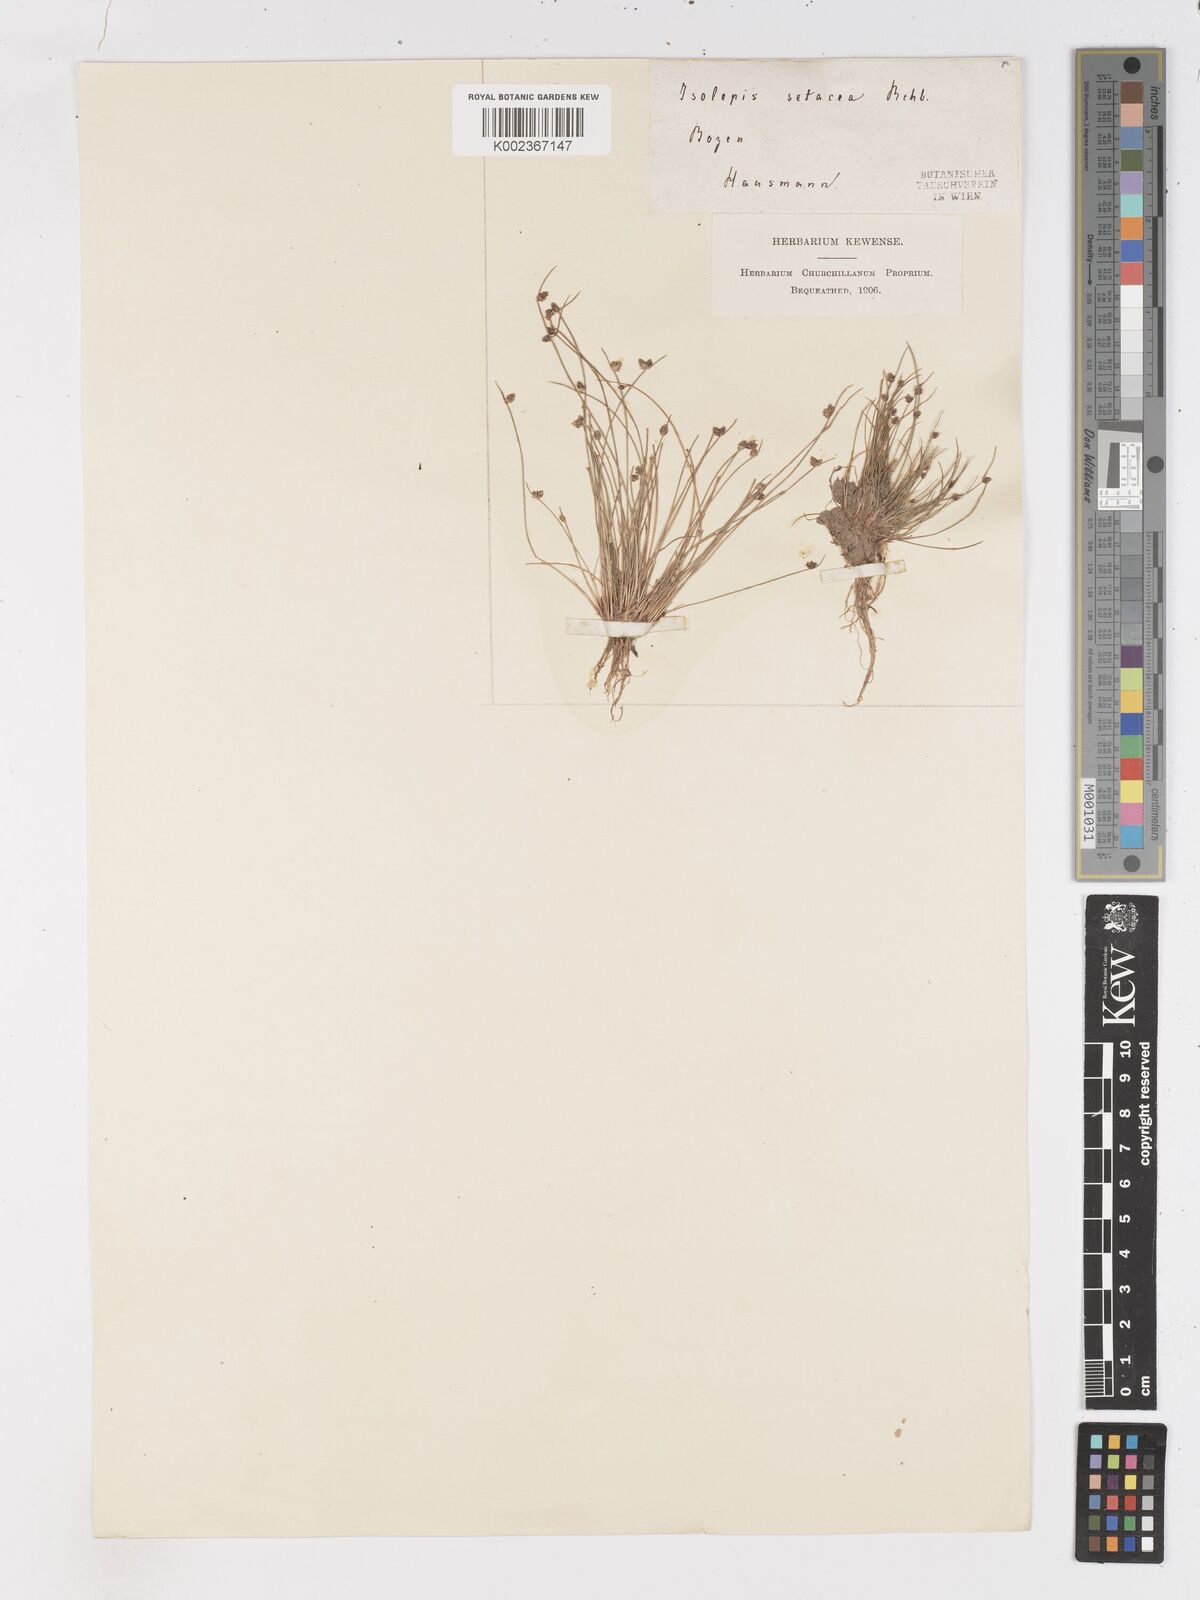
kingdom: Plantae
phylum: Tracheophyta
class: Liliopsida
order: Poales
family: Cyperaceae
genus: Isolepis
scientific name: Isolepis setacea
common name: Bristle club-rush
